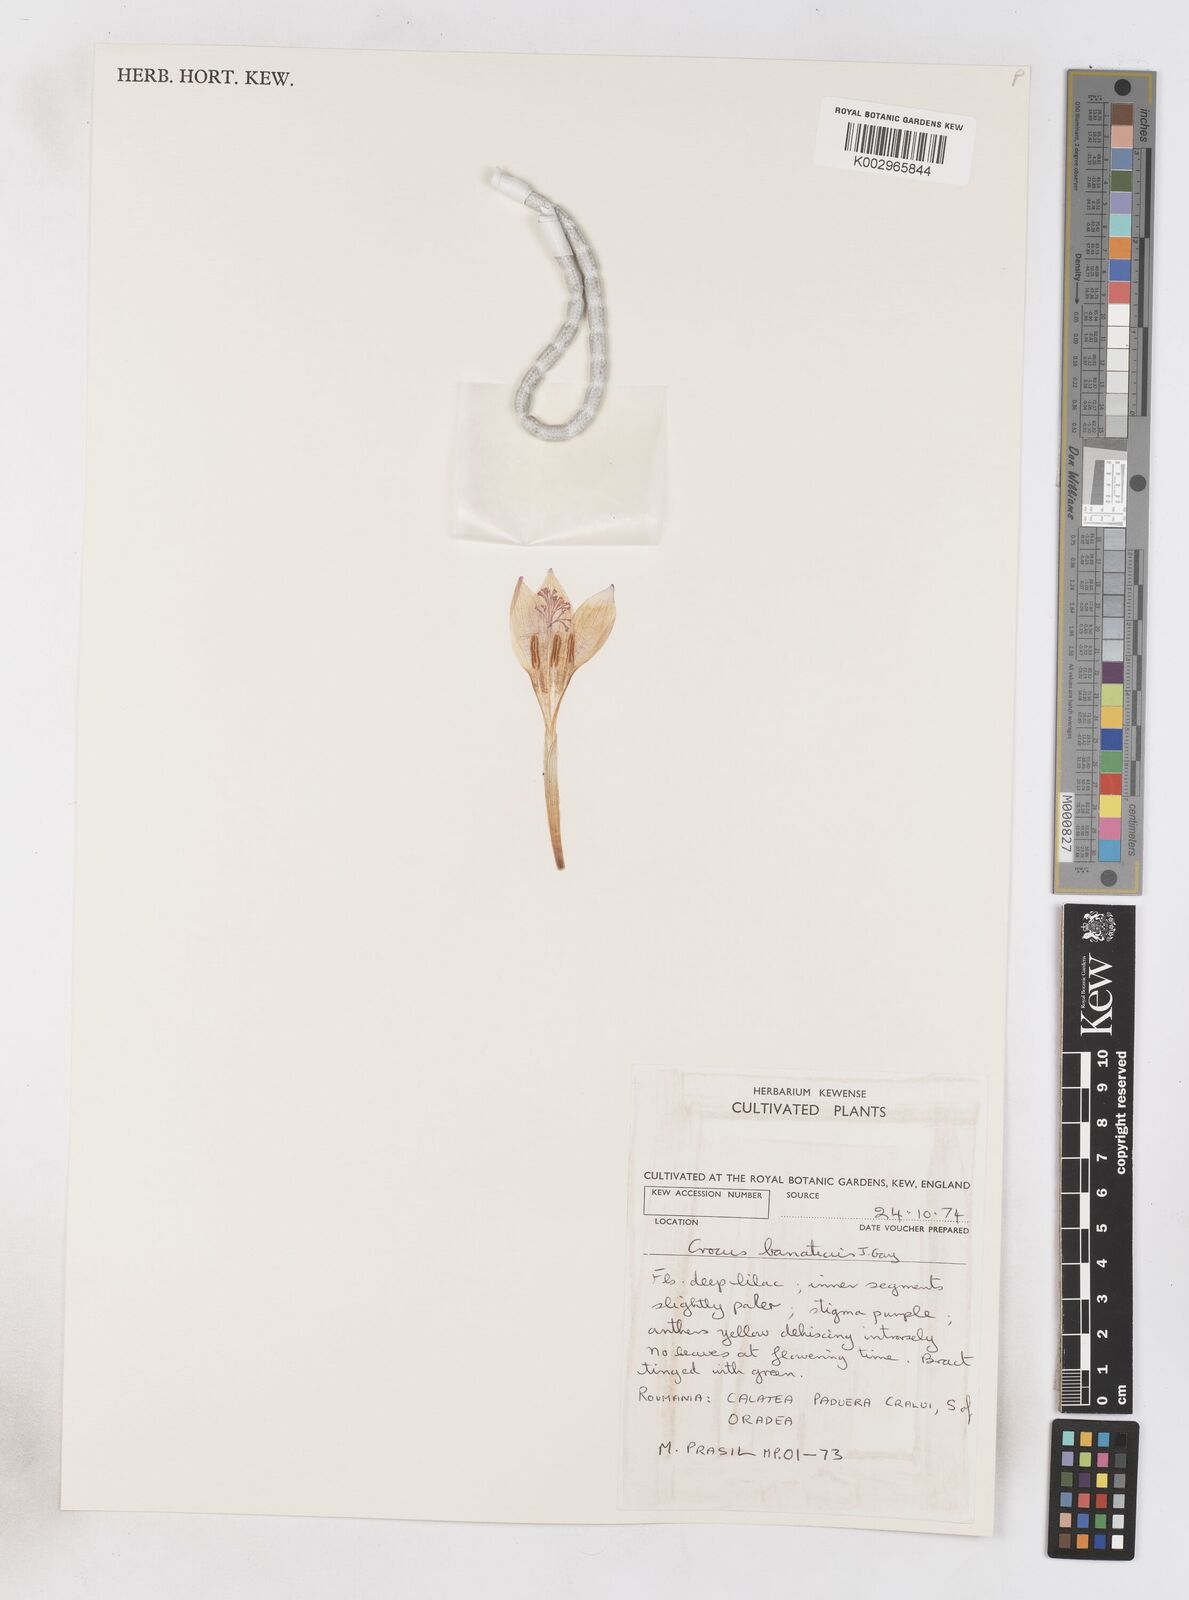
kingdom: Plantae
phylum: Tracheophyta
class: Liliopsida
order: Asparagales
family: Iridaceae
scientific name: Iridaceae
